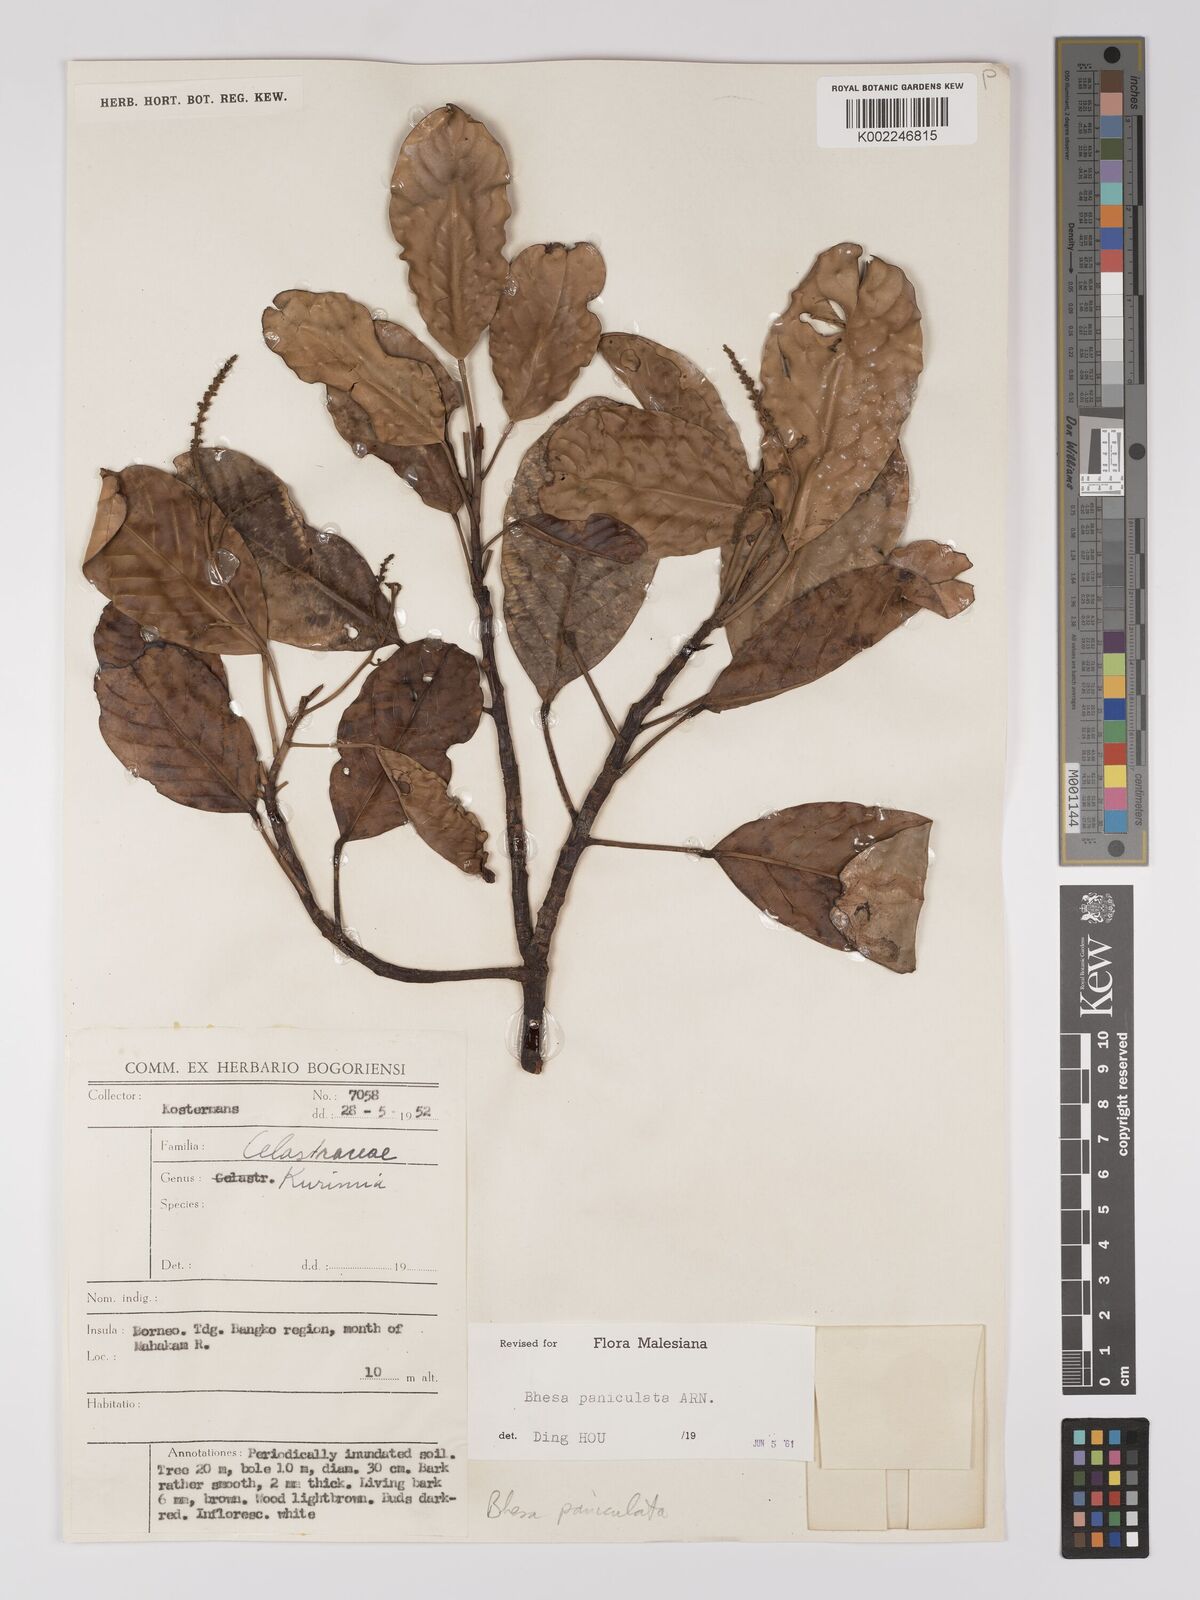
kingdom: Plantae
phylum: Tracheophyta
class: Magnoliopsida
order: Malpighiales
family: Centroplacaceae
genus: Bhesa
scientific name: Bhesa paniculata
